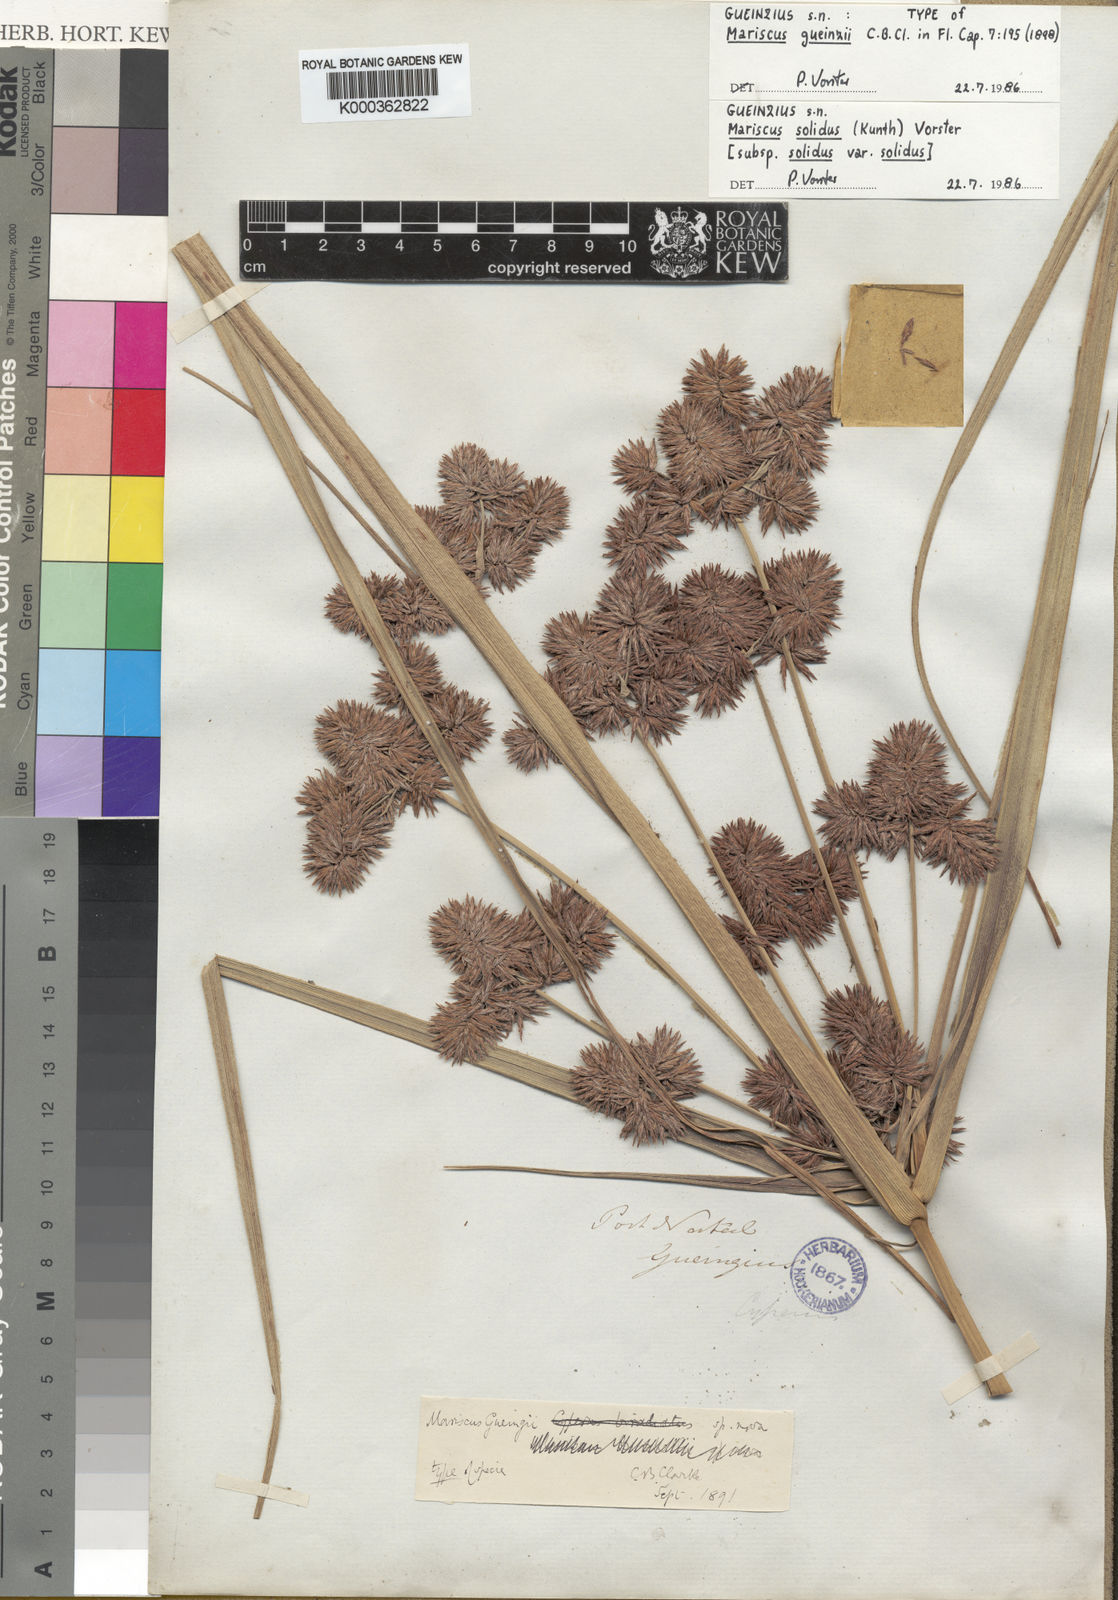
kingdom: Plantae
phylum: Tracheophyta
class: Liliopsida
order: Poales
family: Cyperaceae
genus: Cyperus
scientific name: Cyperus dactyliformis
